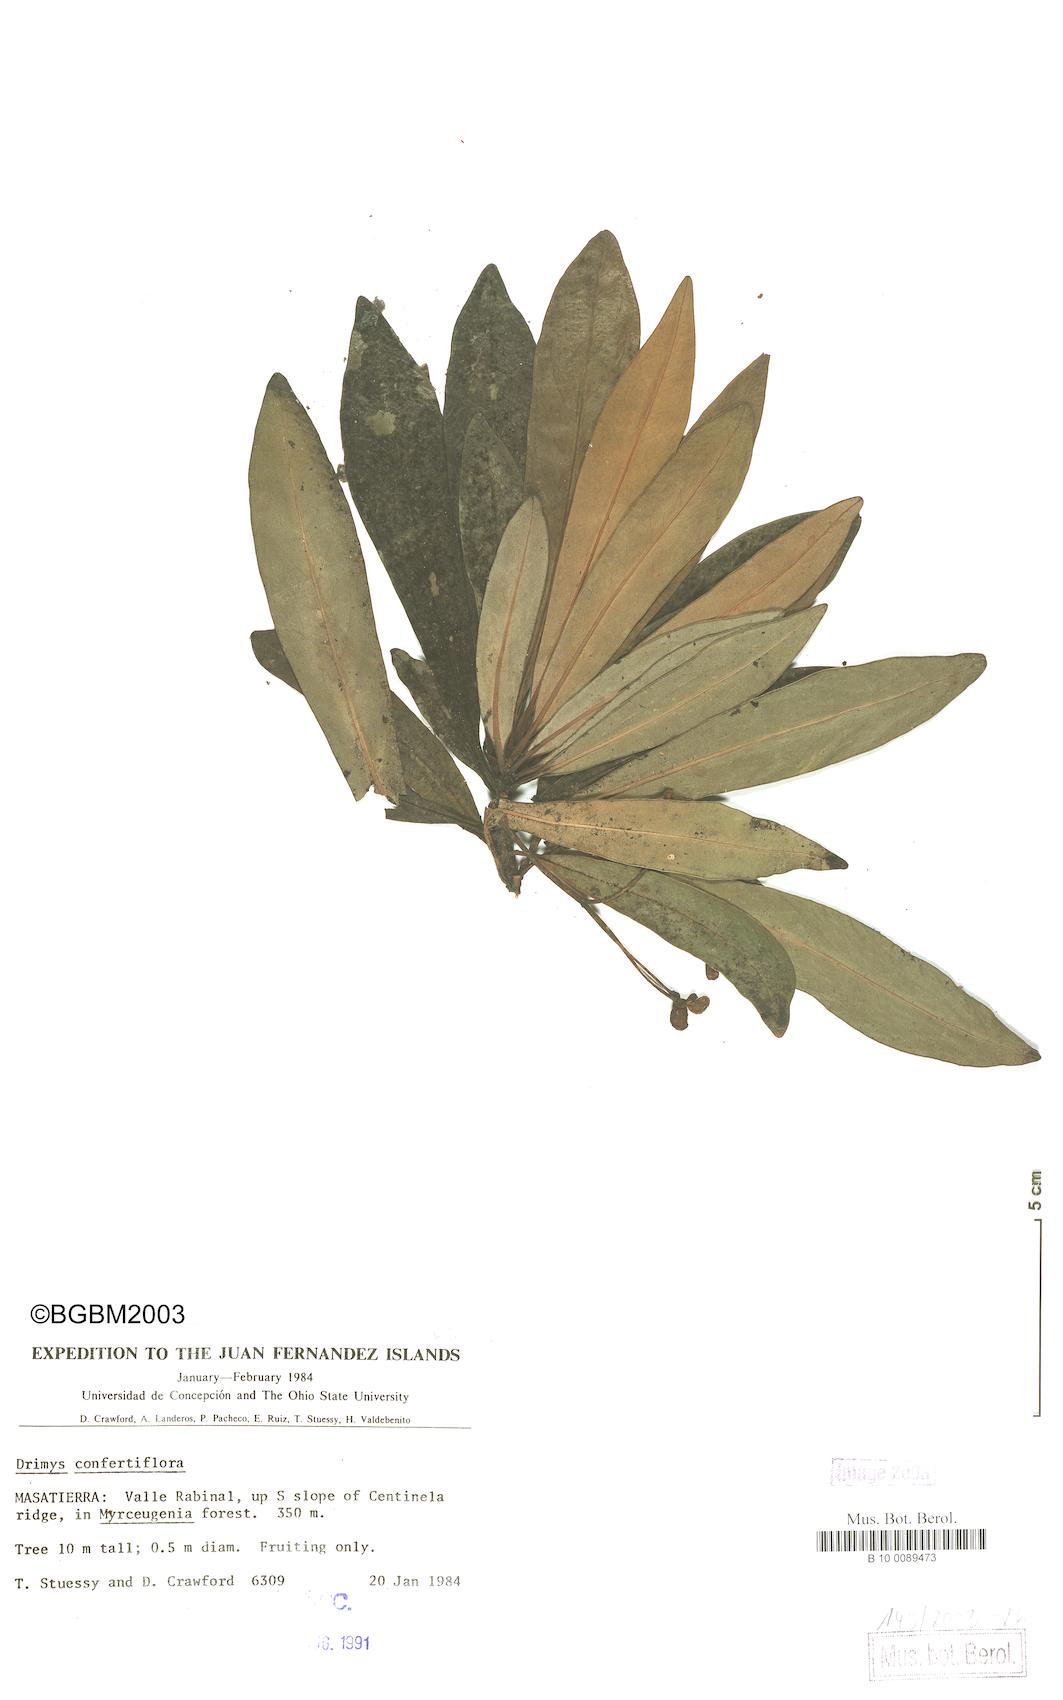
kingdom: Plantae
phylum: Tracheophyta
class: Magnoliopsida
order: Canellales
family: Winteraceae
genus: Drimys
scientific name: Drimys confertiflora
